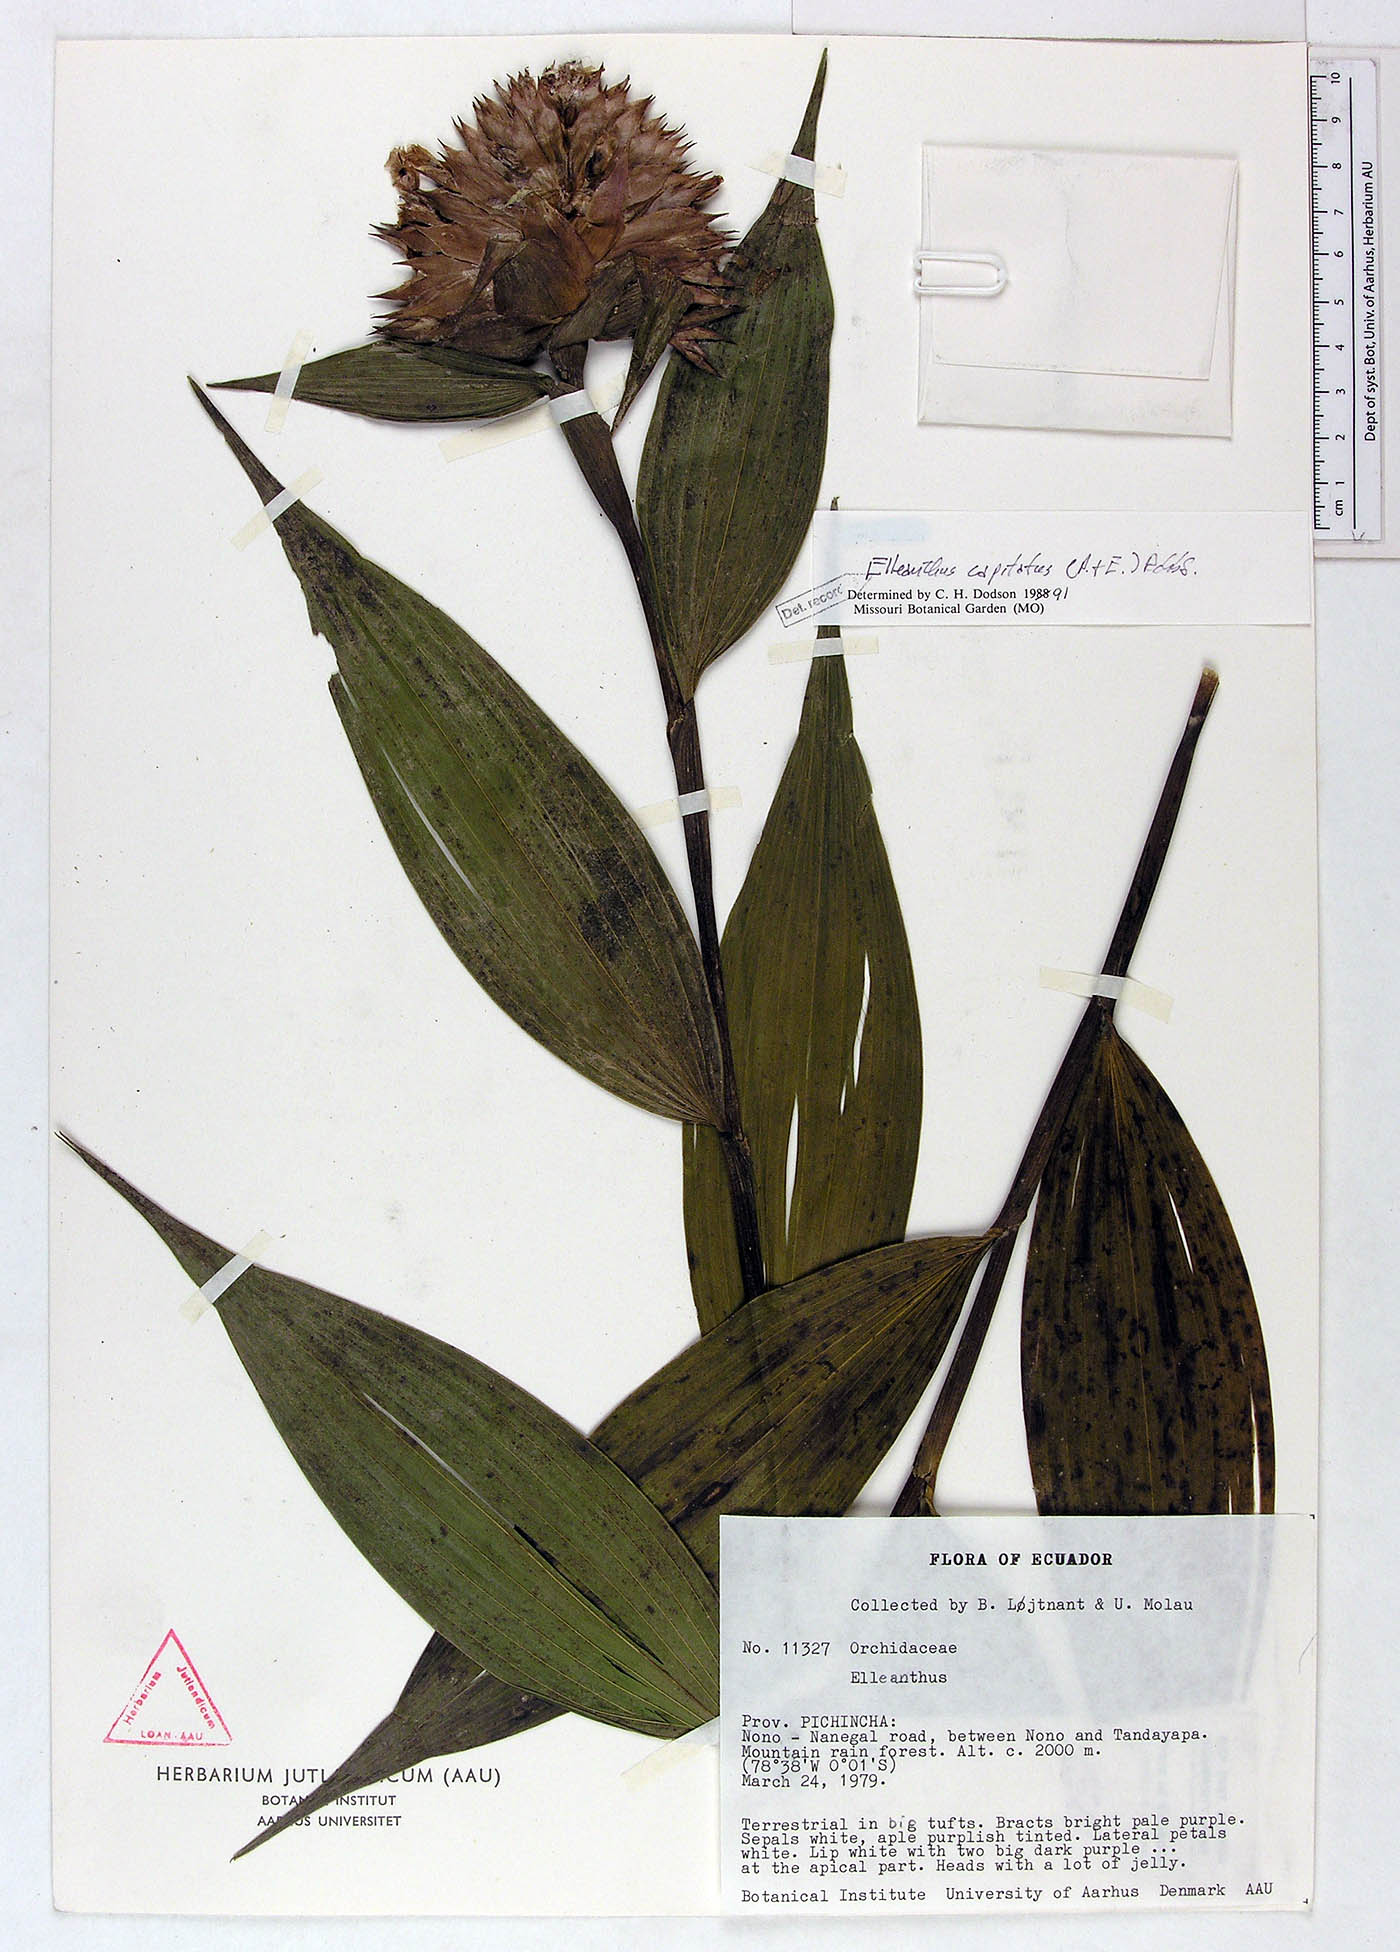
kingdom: Plantae
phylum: Tracheophyta
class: Liliopsida
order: Asparagales
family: Orchidaceae
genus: Elleanthus
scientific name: Elleanthus capitatus
